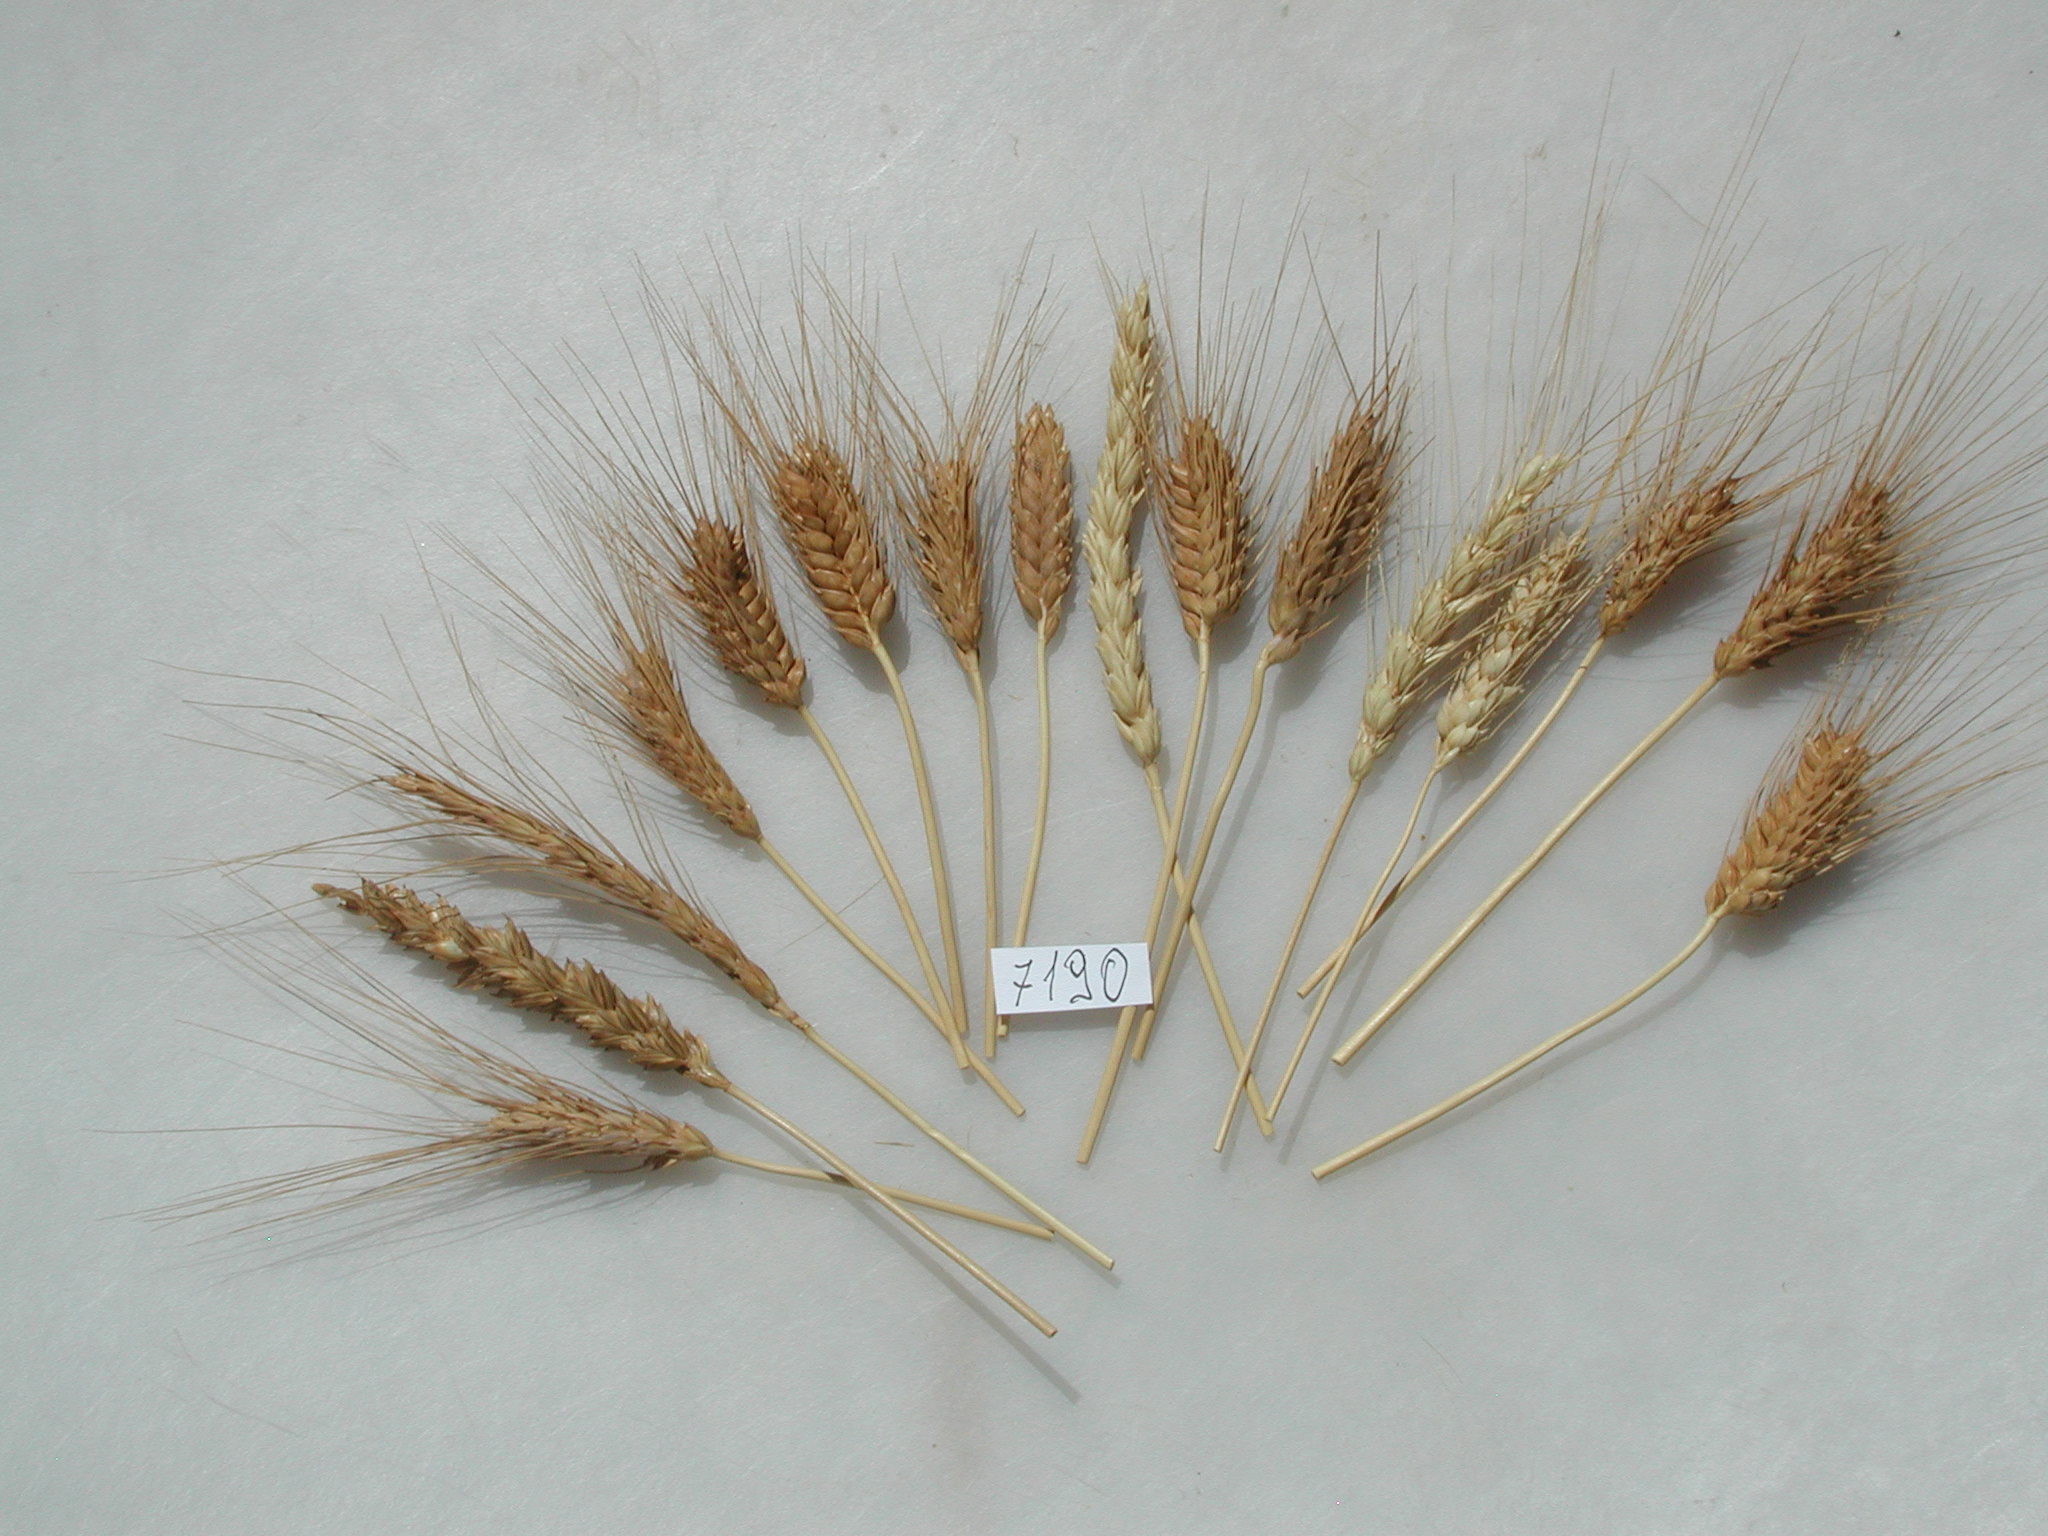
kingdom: Plantae
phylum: Tracheophyta
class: Liliopsida
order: Poales
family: Poaceae
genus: Triticum
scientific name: Triticum aestivum
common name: Wheat
